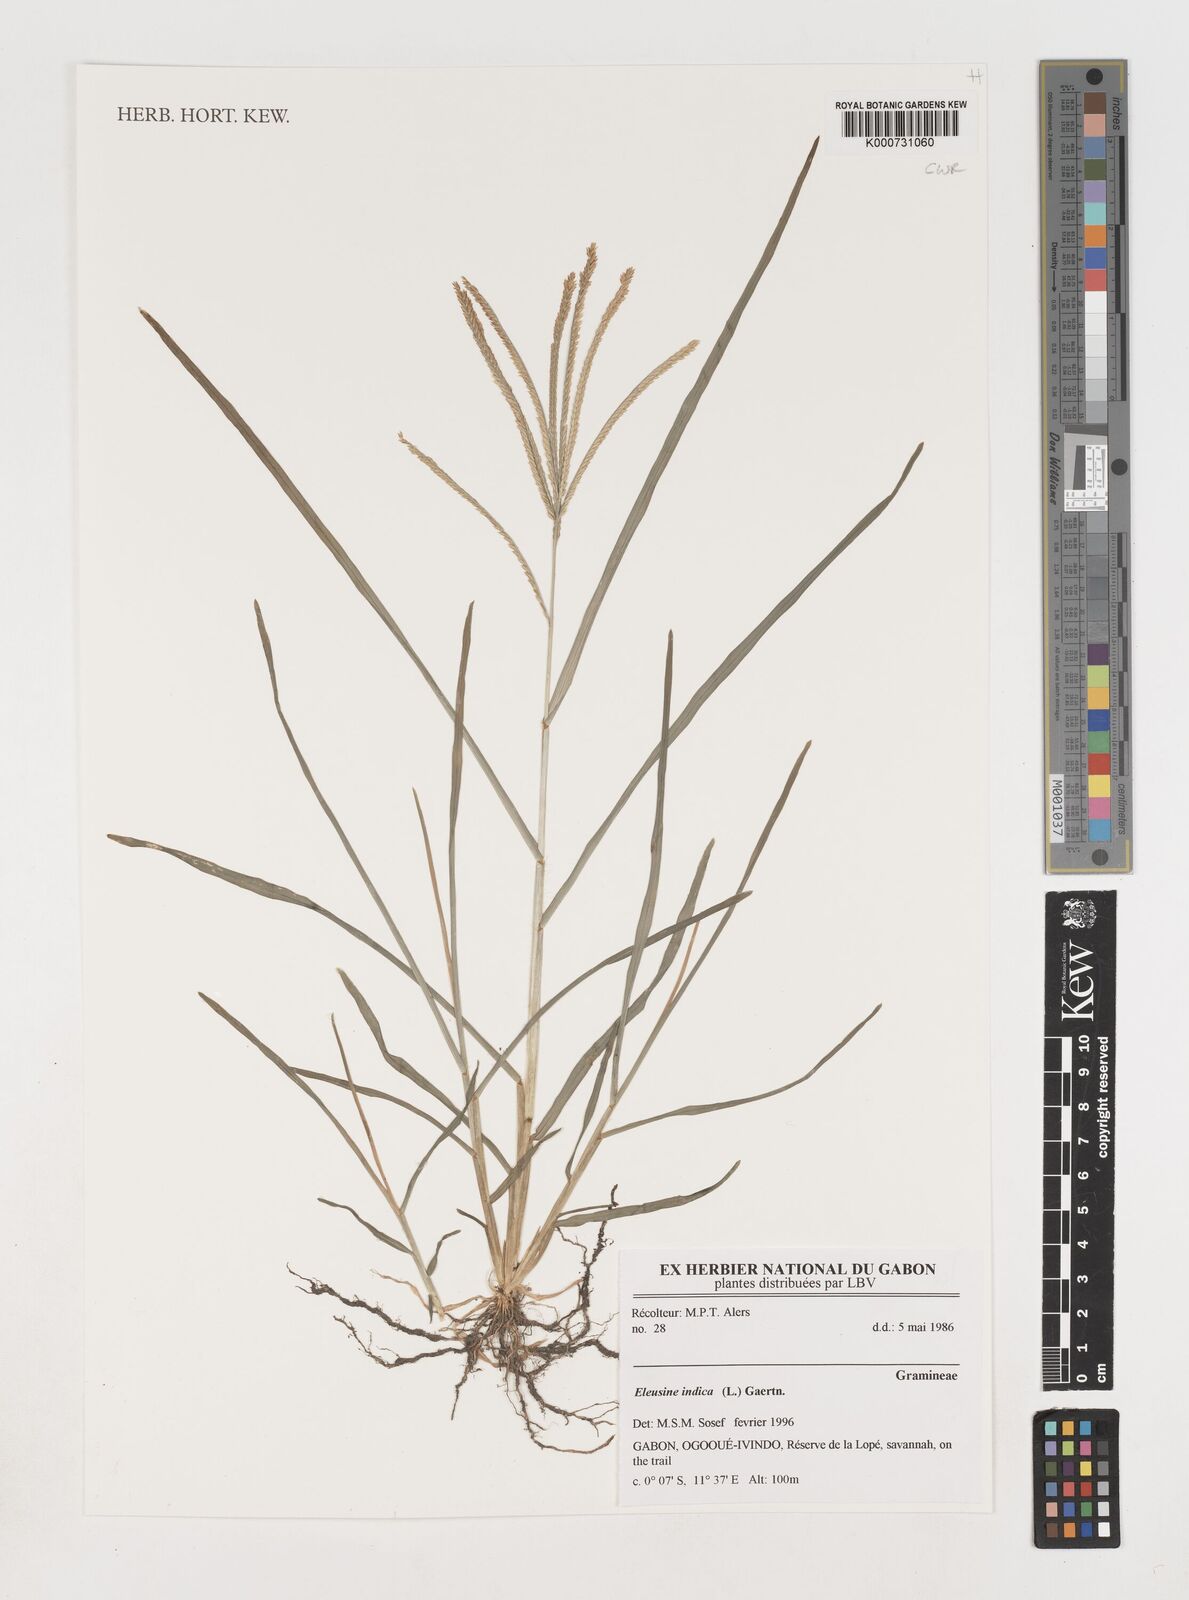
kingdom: Plantae
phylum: Tracheophyta
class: Liliopsida
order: Poales
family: Poaceae
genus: Eleusine
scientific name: Eleusine indica
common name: Yard-grass
